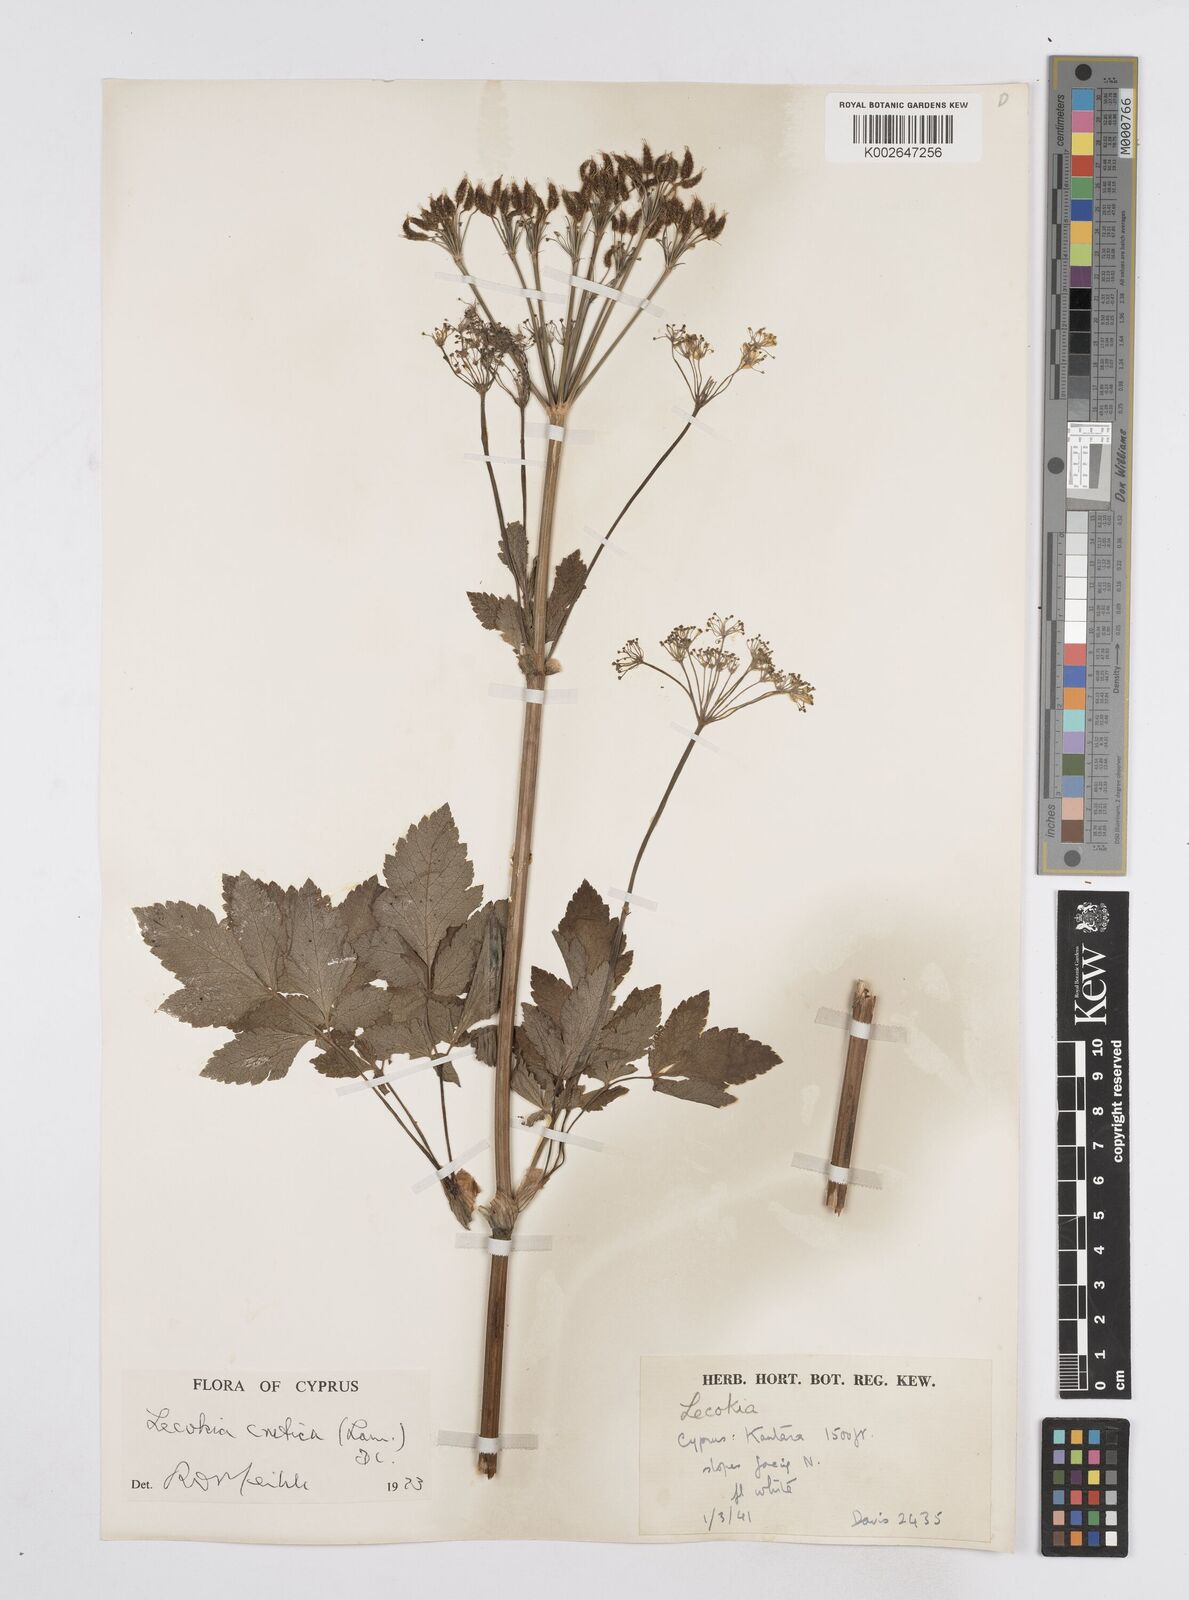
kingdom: Plantae
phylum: Tracheophyta
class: Magnoliopsida
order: Apiales
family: Apiaceae
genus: Lecokia
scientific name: Lecokia cretica
